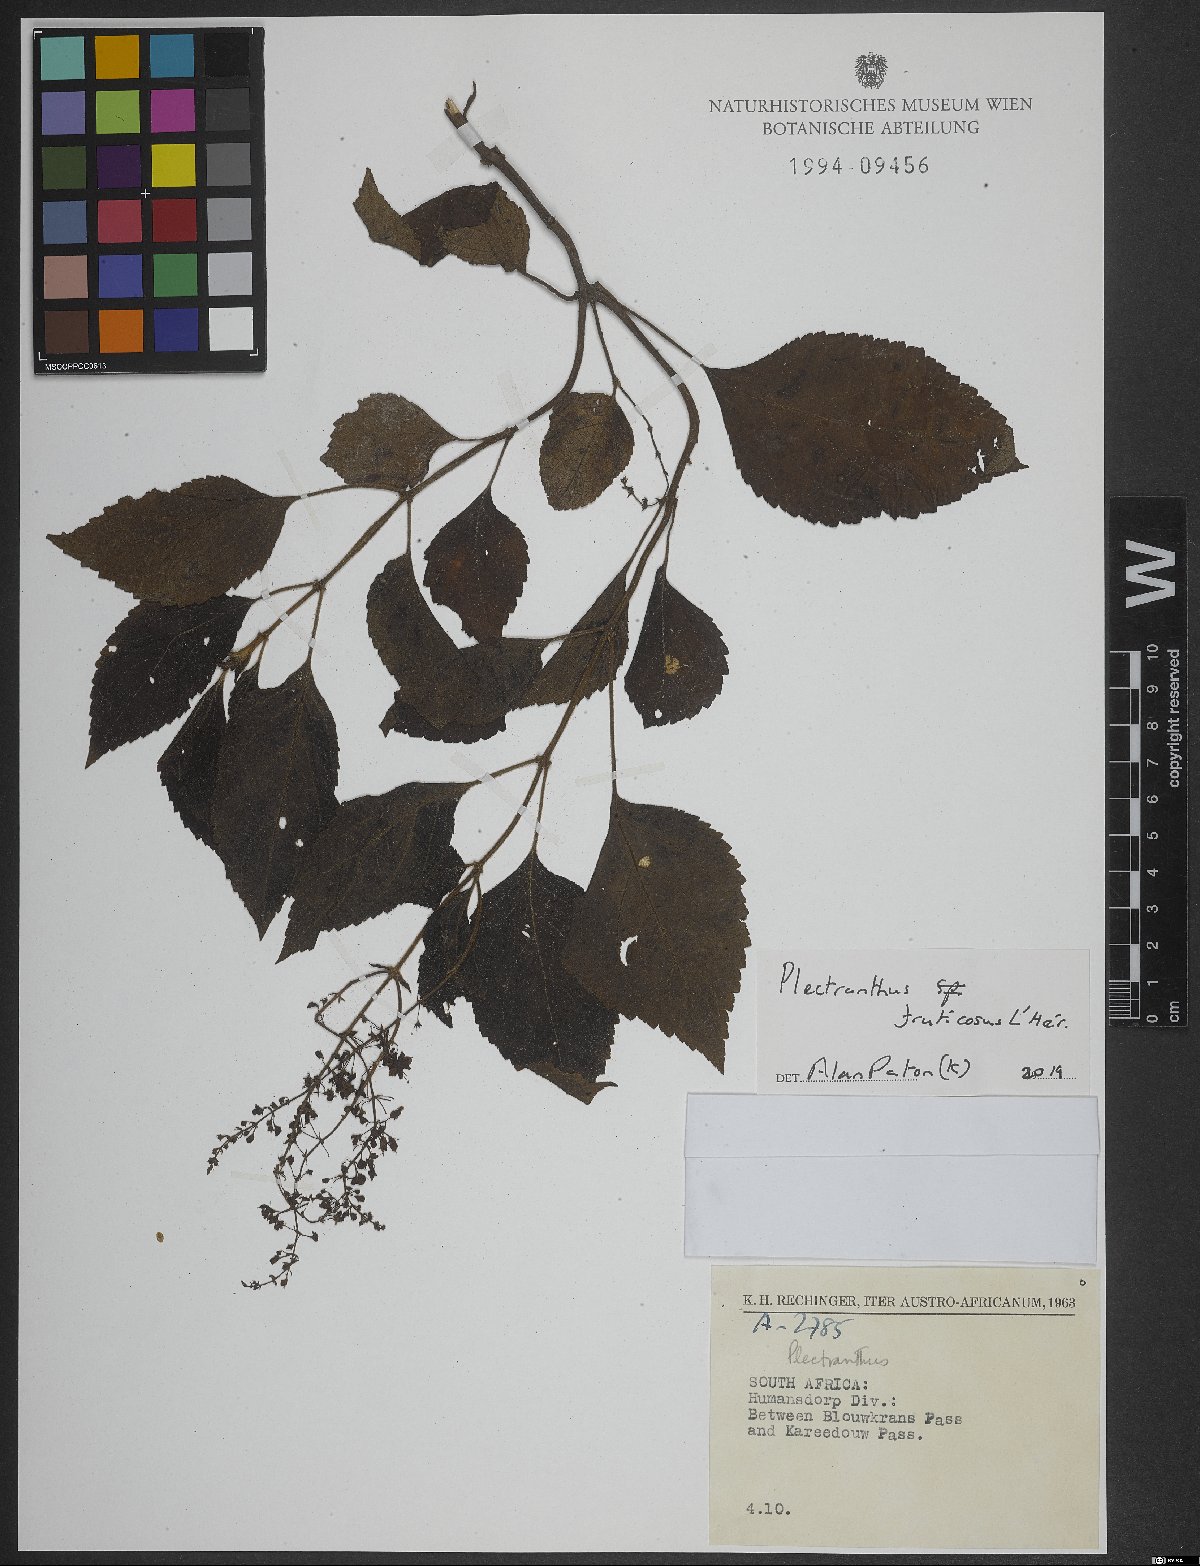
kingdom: Plantae
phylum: Tracheophyta
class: Magnoliopsida
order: Lamiales
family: Lamiaceae
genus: Plectranthus
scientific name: Plectranthus fruticosus
